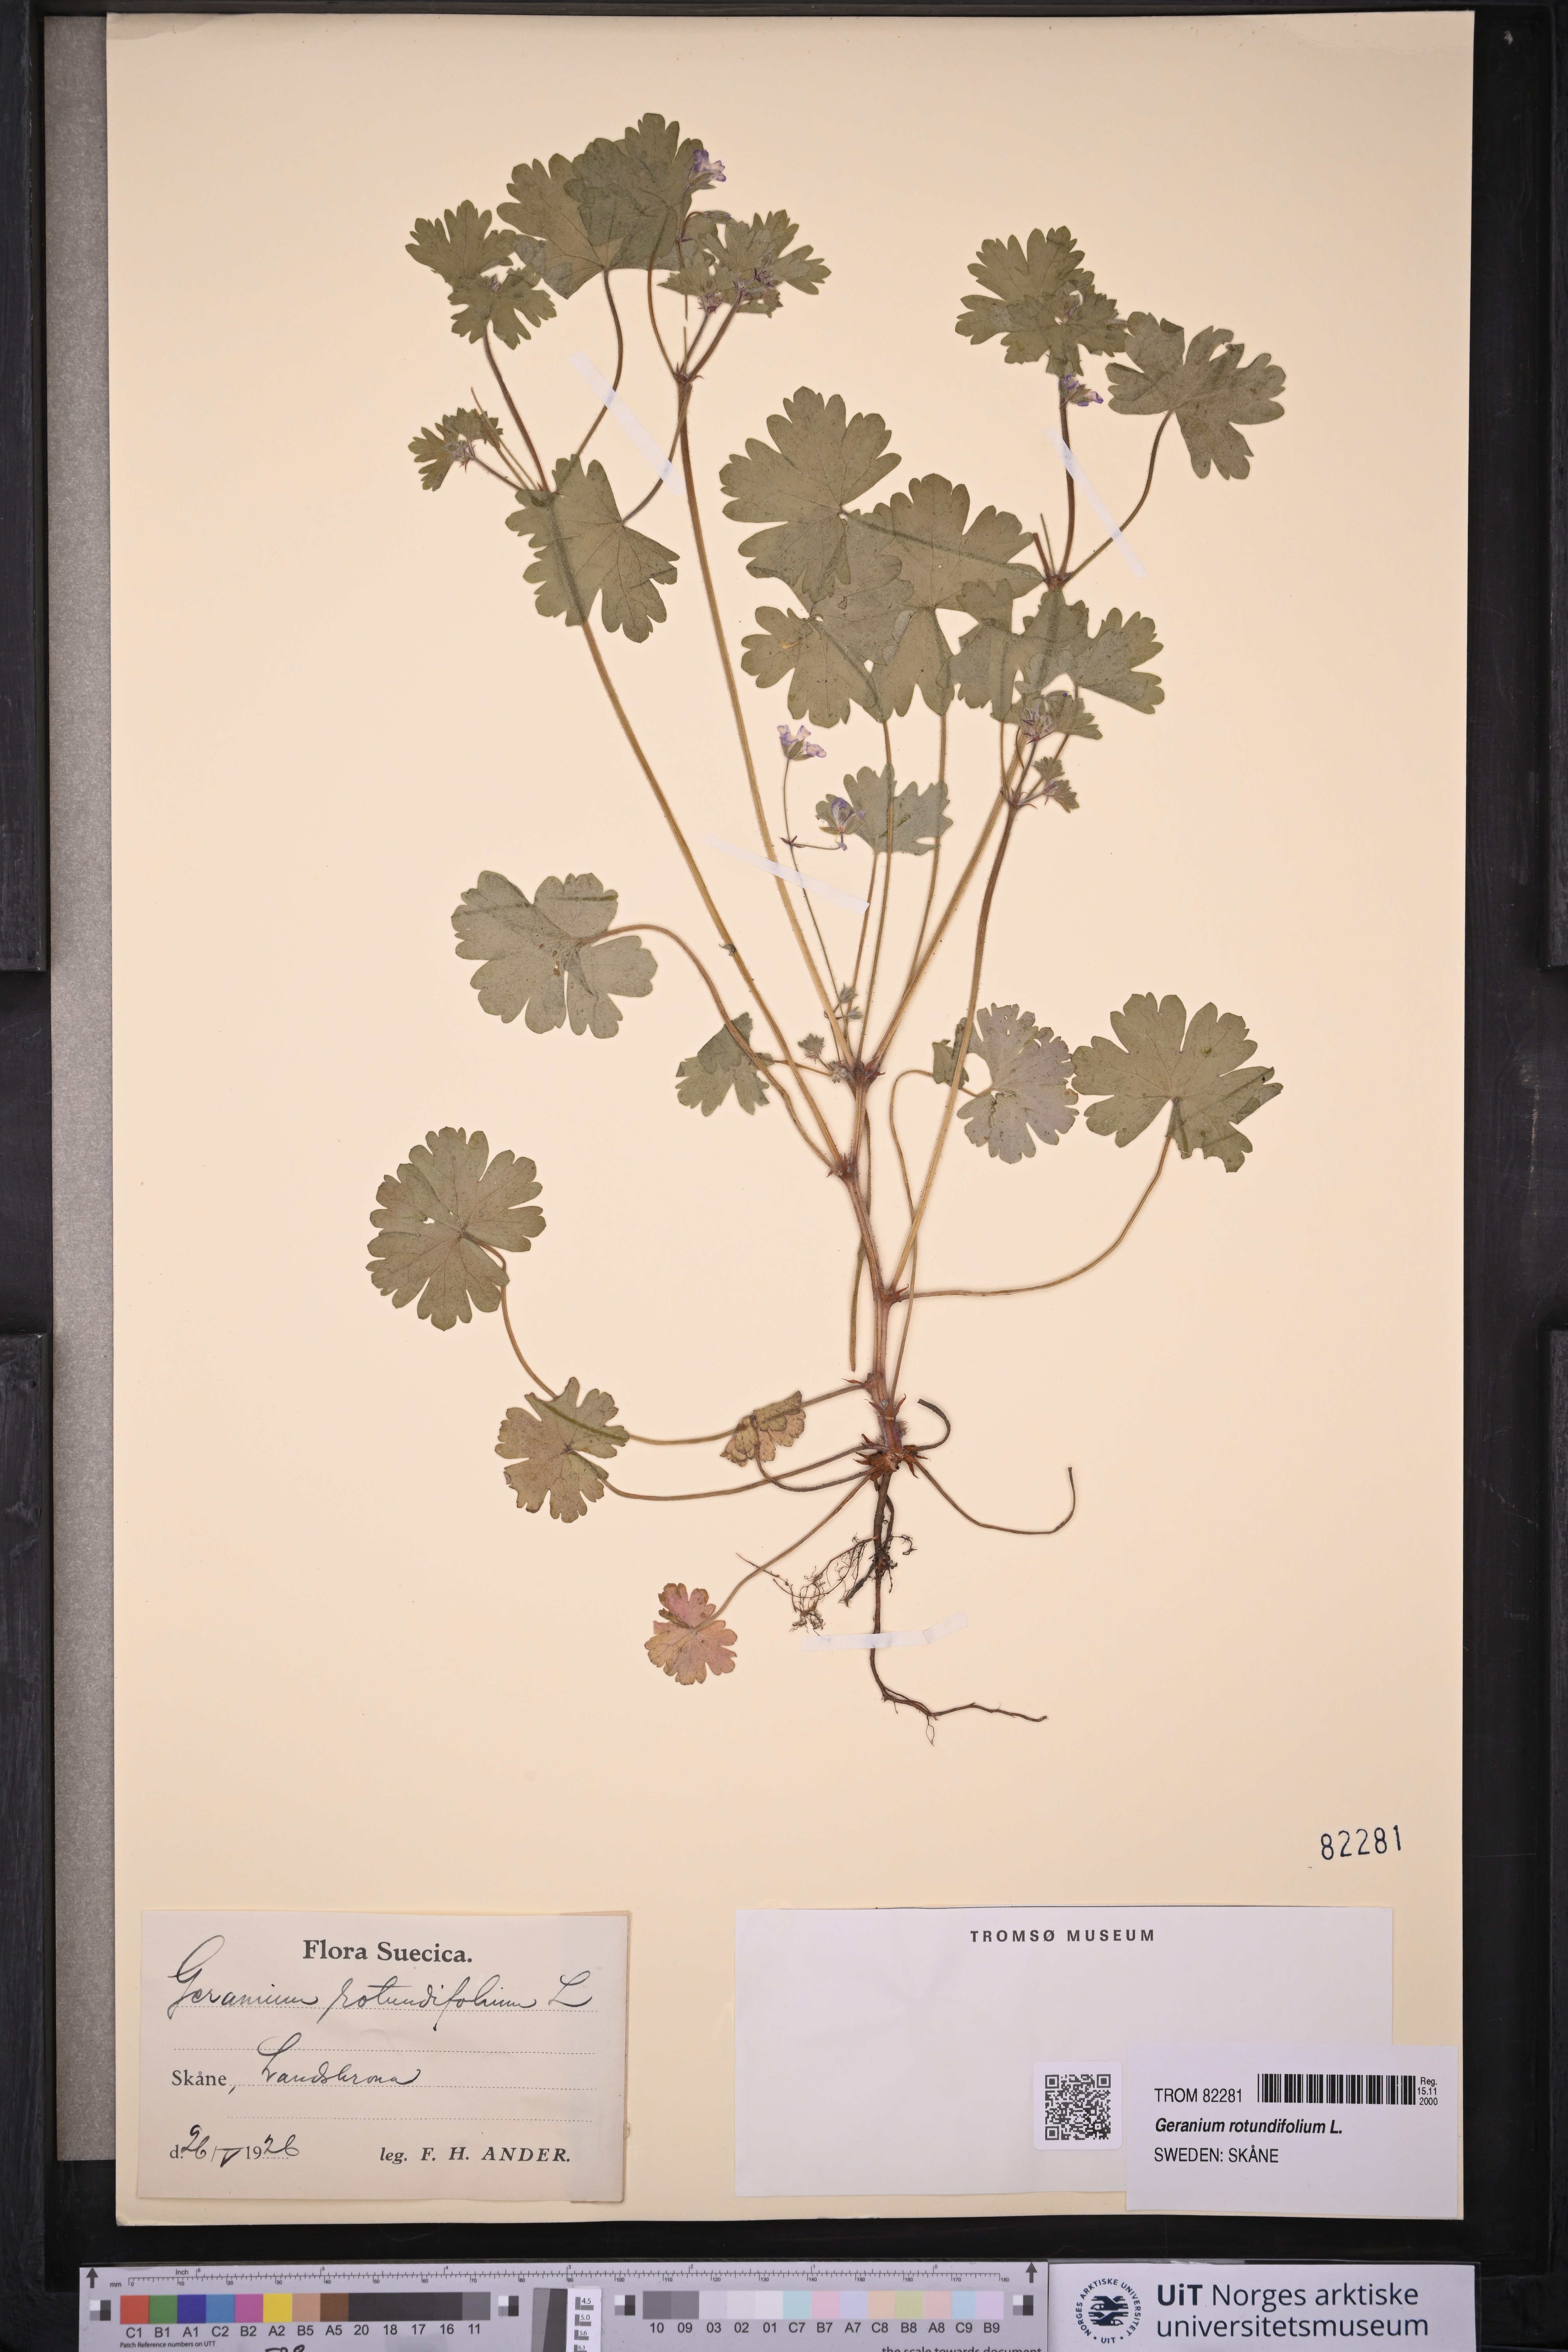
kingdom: Plantae
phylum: Tracheophyta
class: Magnoliopsida
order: Geraniales
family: Geraniaceae
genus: Geranium
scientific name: Geranium rotundifolium
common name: Round-leaved crane's-bill
